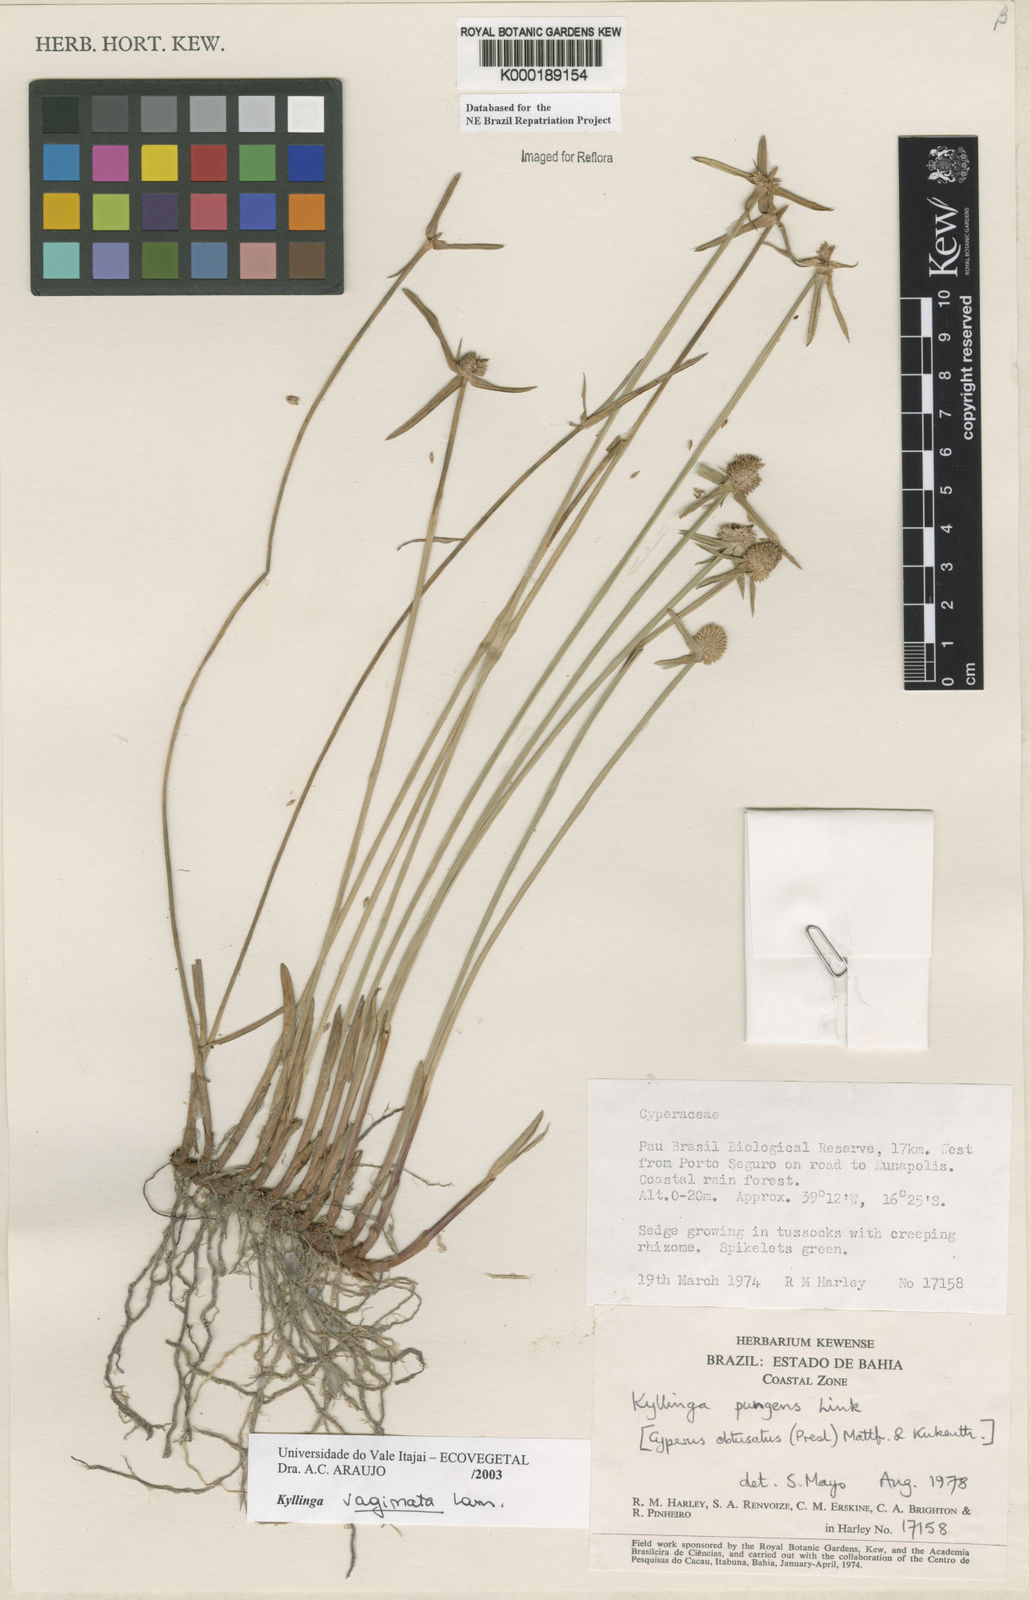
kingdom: Plantae
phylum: Tracheophyta
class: Liliopsida
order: Poales
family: Cyperaceae
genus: Cyperus
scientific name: Cyperus obtusatus
